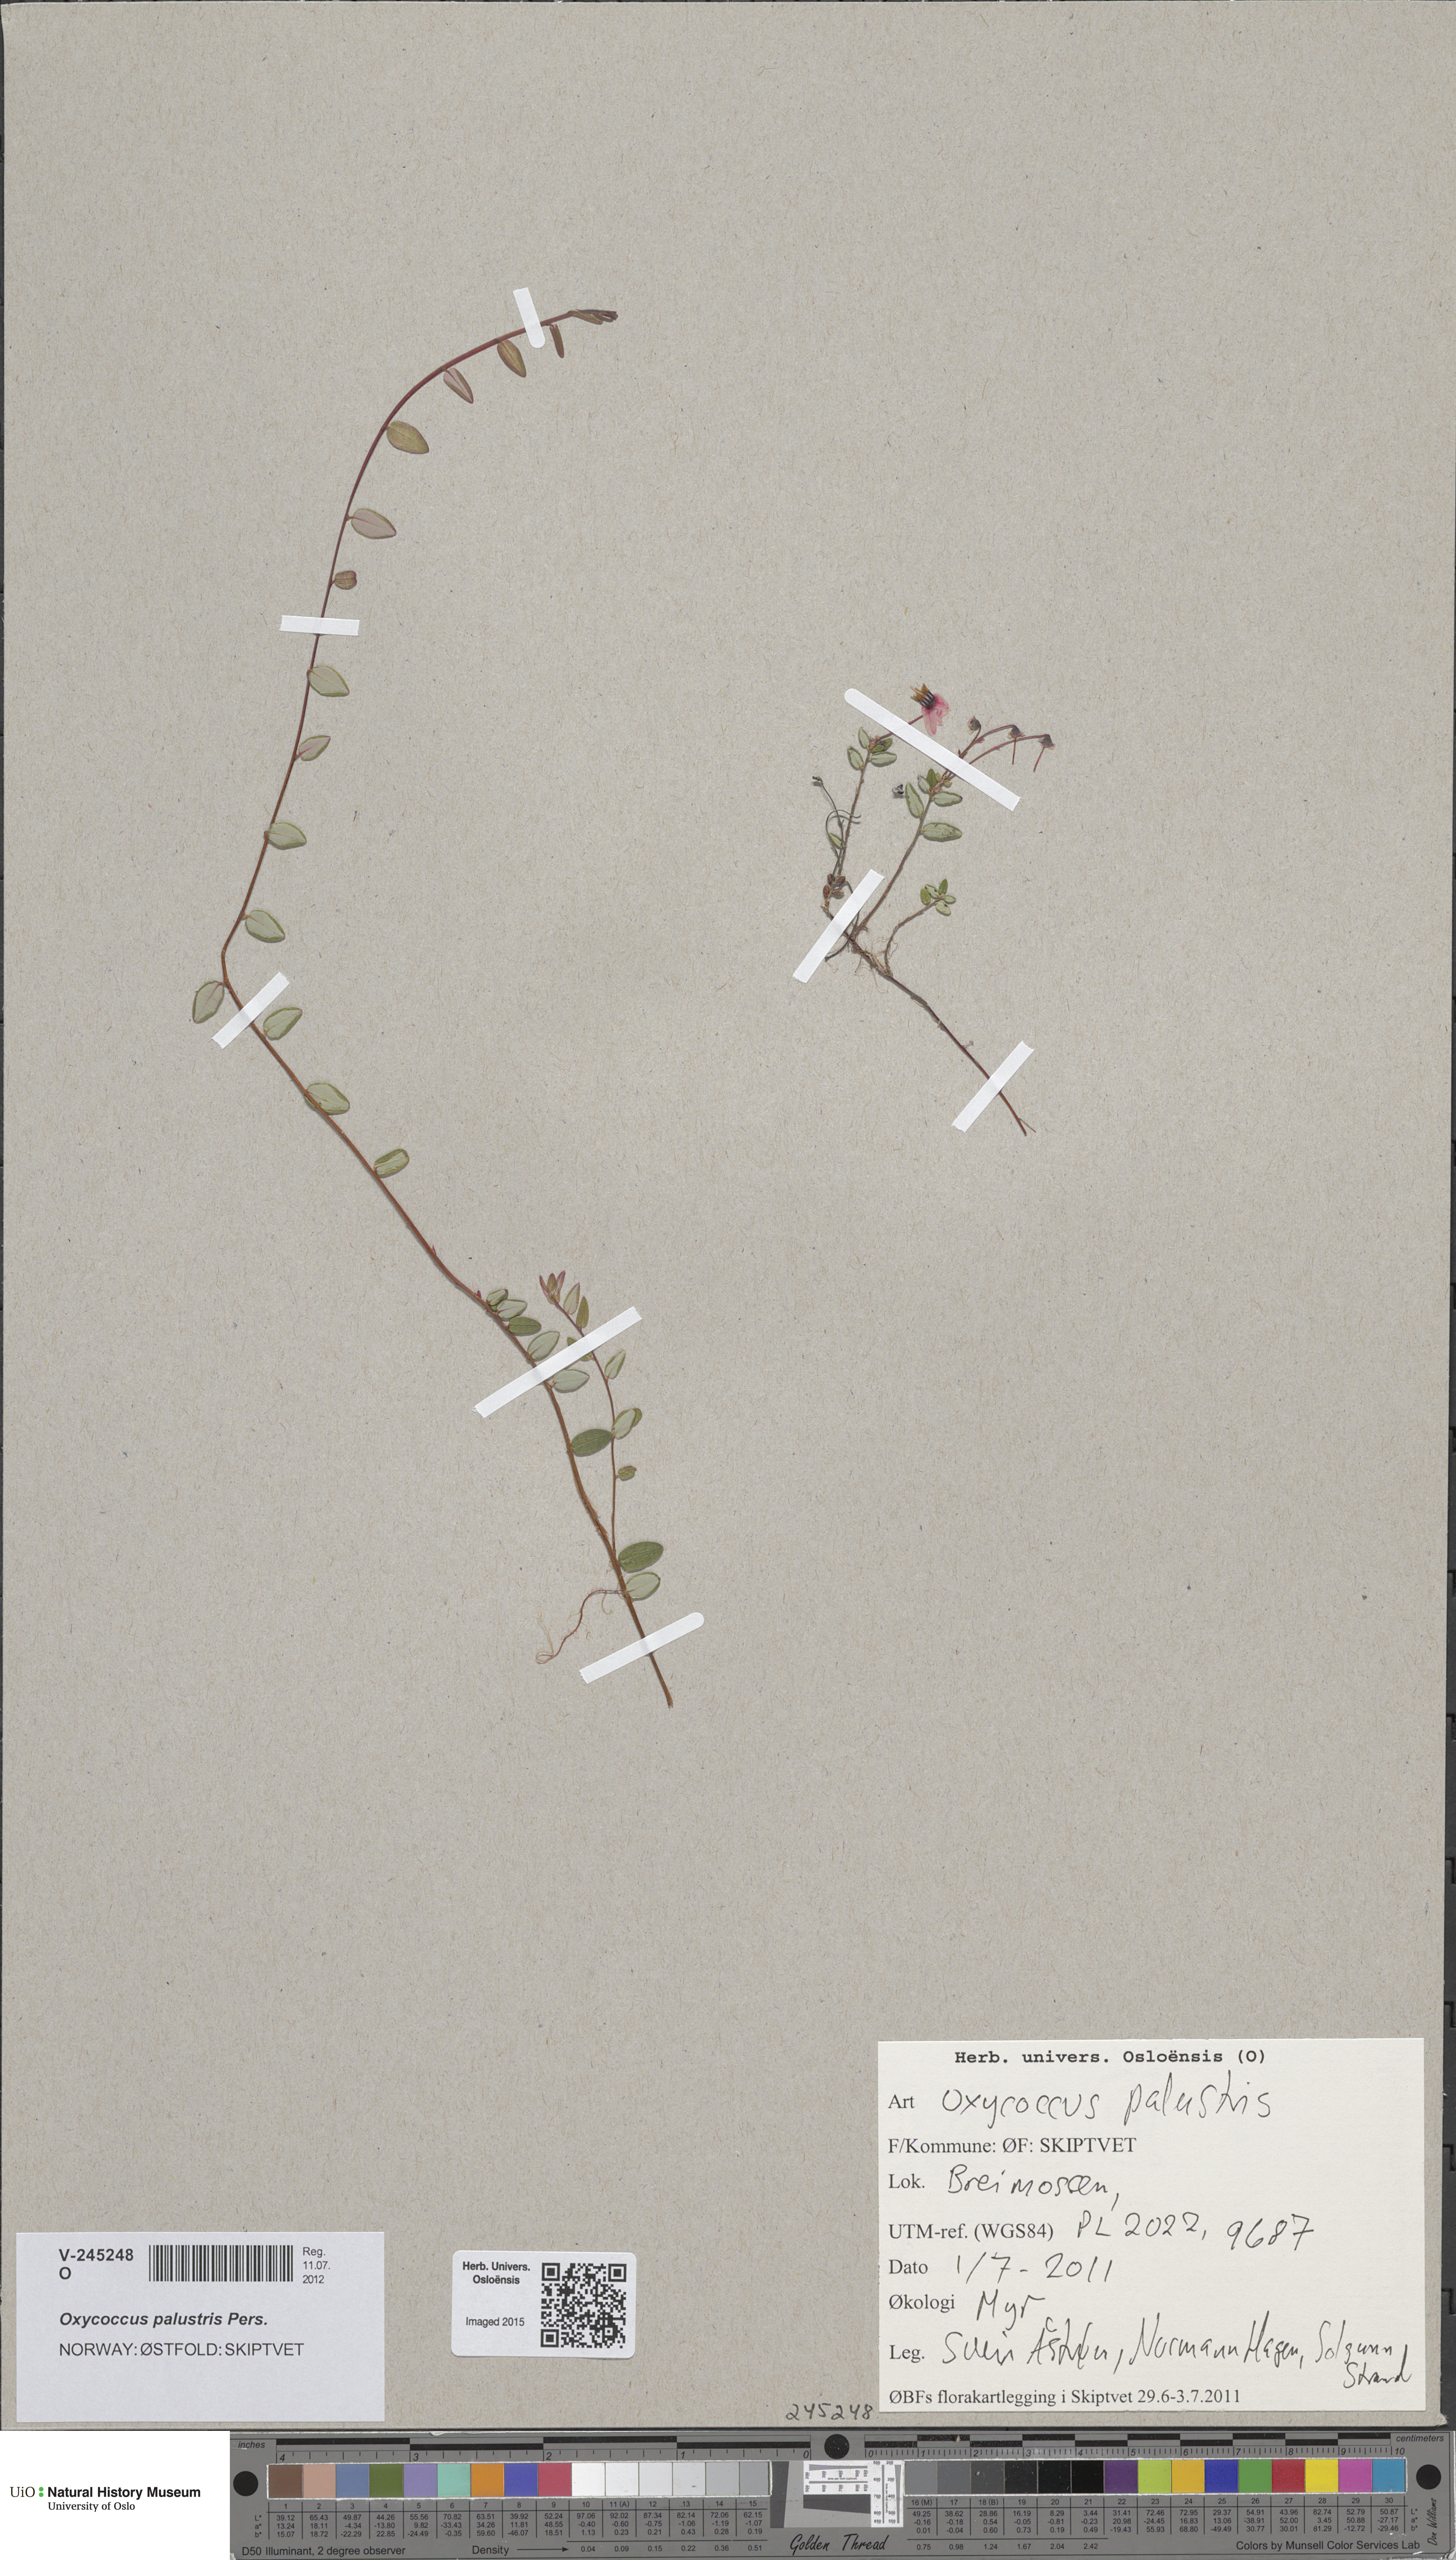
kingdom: Plantae
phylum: Tracheophyta
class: Magnoliopsida
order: Ericales
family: Ericaceae
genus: Vaccinium
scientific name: Vaccinium oxycoccos
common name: Cranberry
